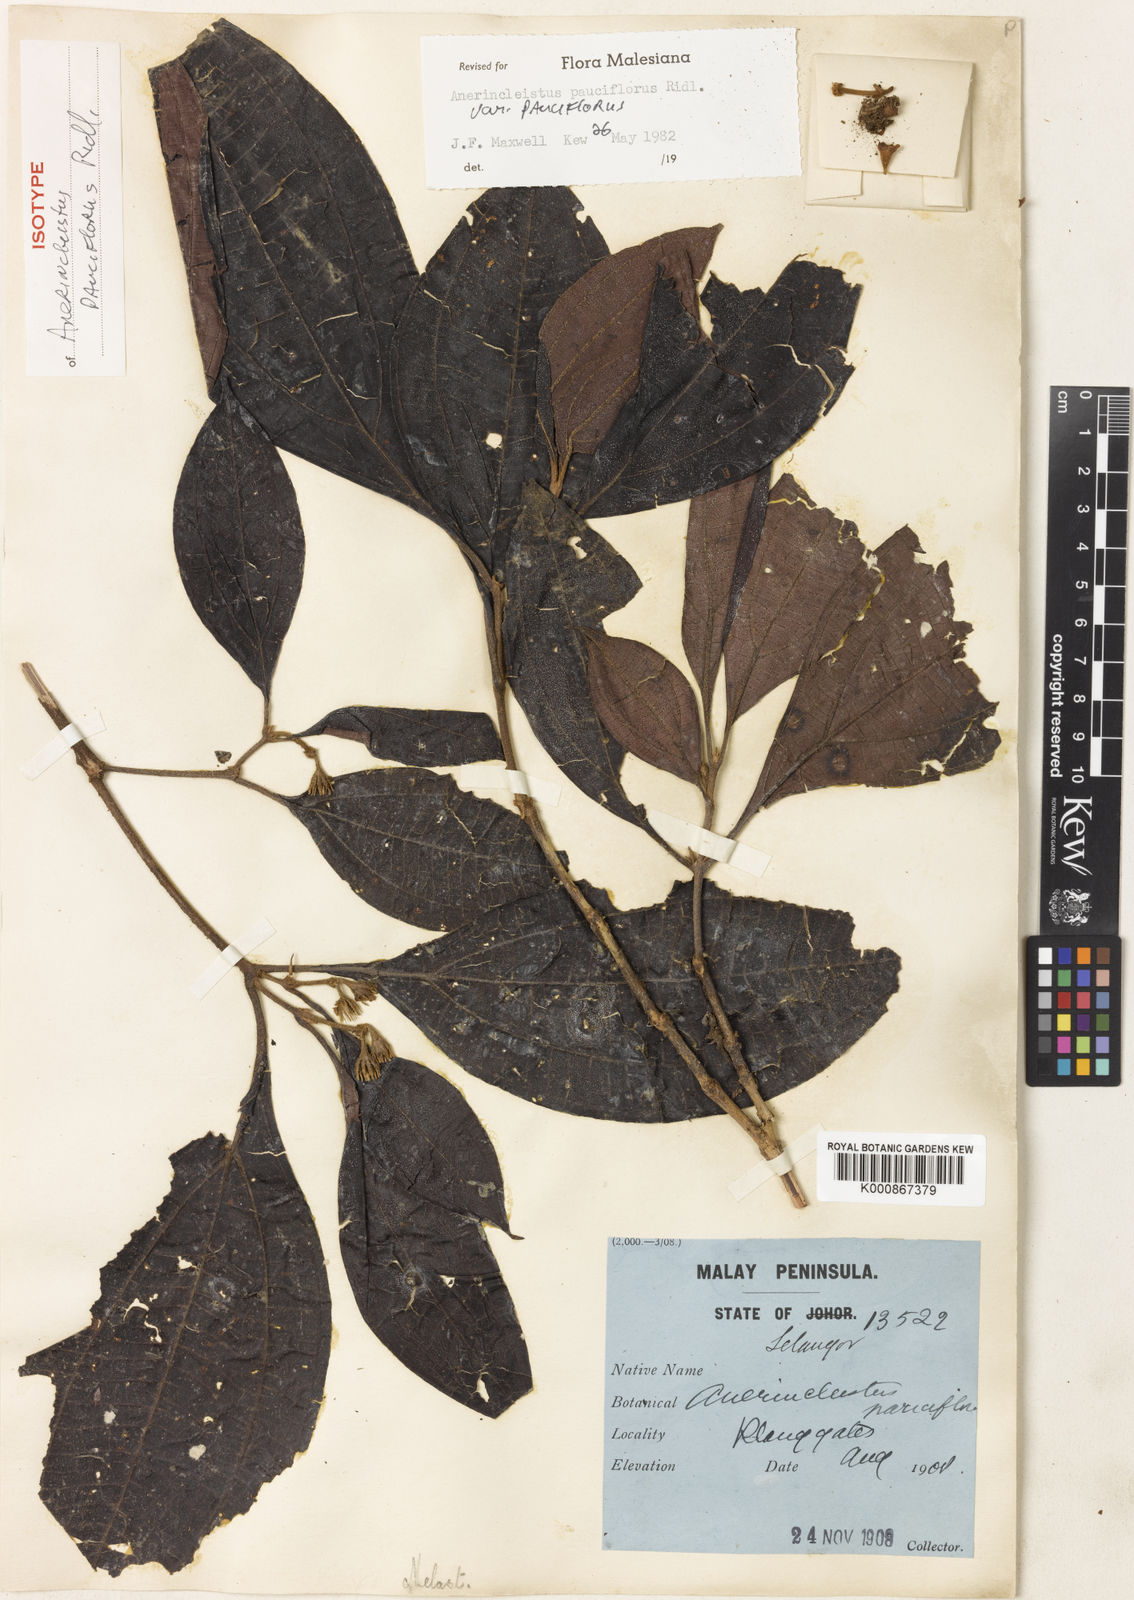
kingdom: Plantae
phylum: Tracheophyta
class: Magnoliopsida
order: Myrtales
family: Melastomataceae
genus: Anerincleistus
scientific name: Anerincleistus pauciflorus
